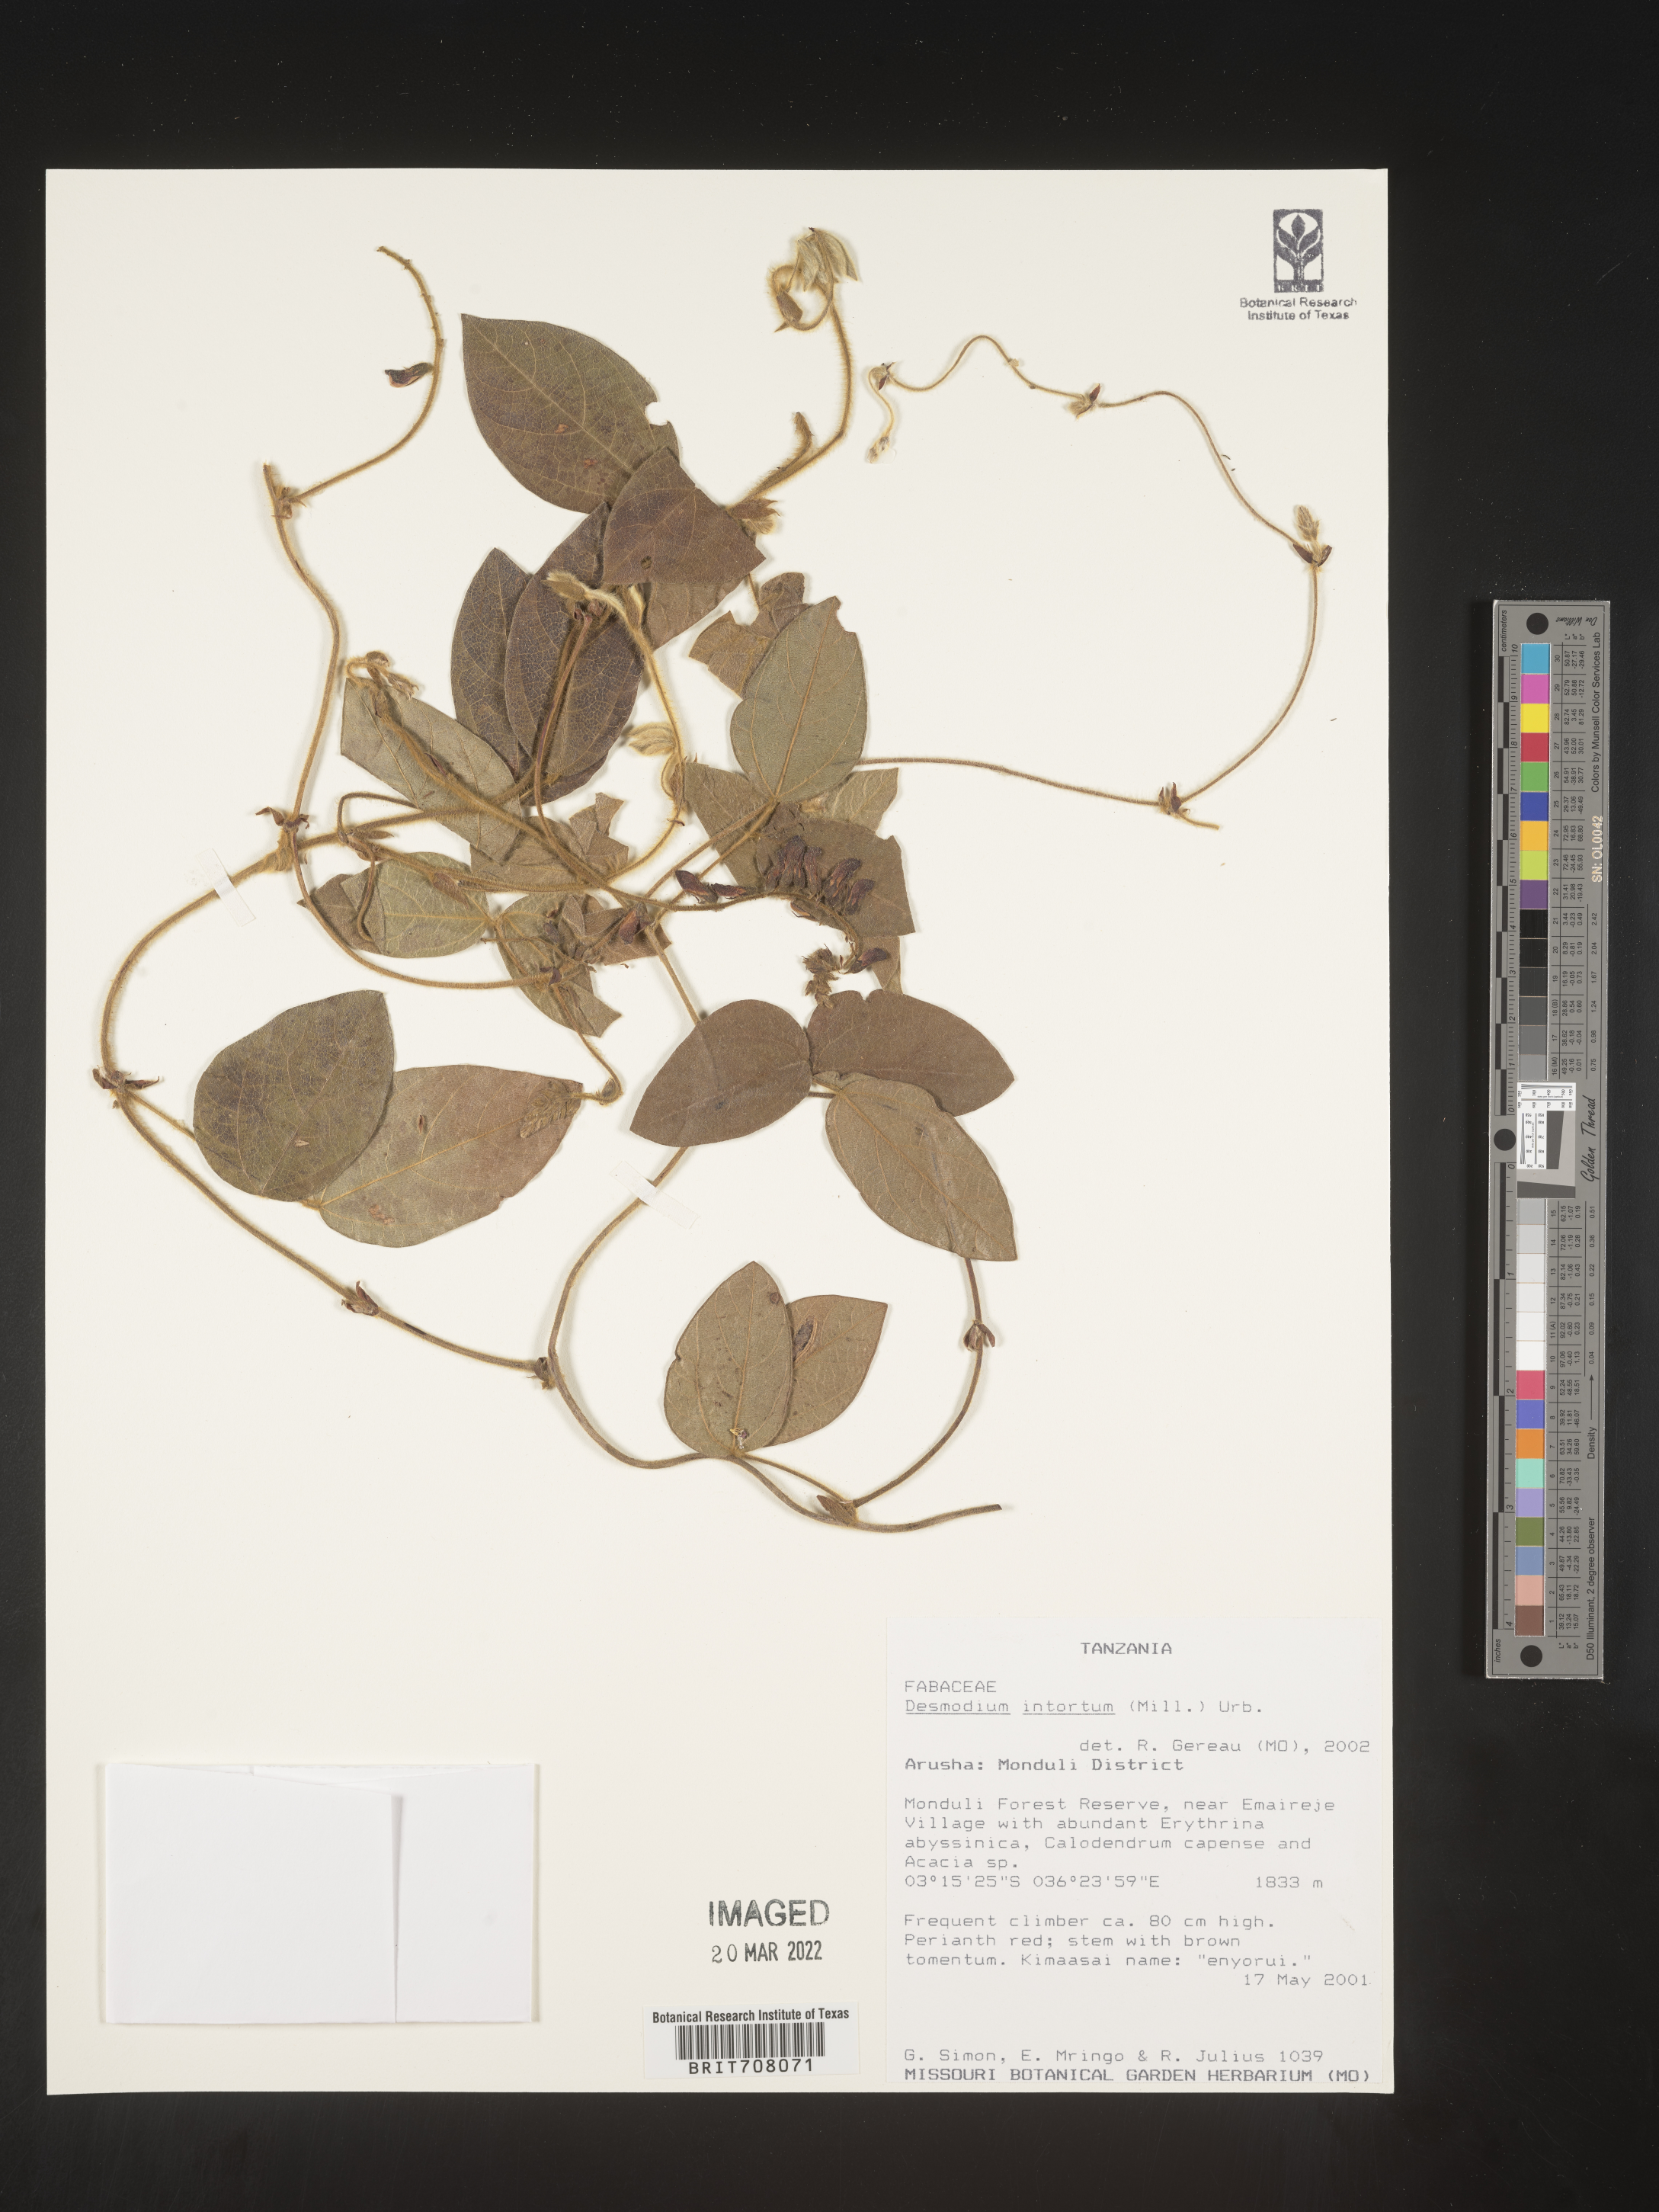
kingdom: Plantae
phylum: Tracheophyta
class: Magnoliopsida
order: Fabales
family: Fabaceae
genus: Desmodium
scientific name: Desmodium
